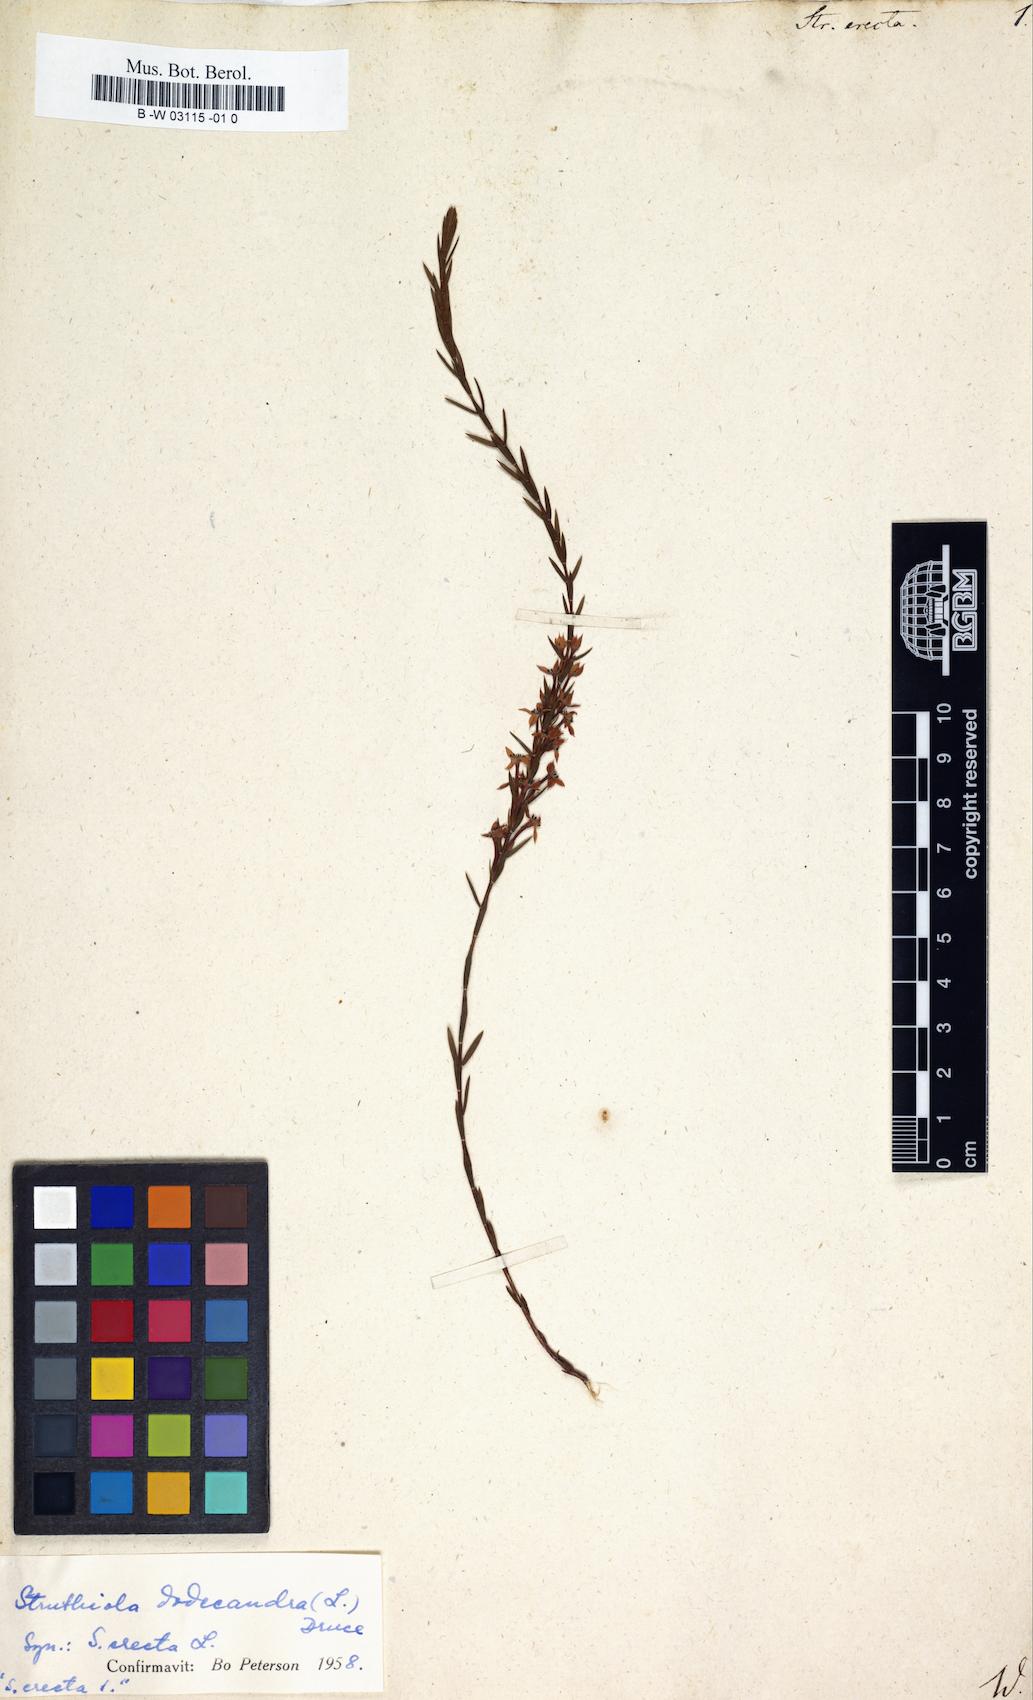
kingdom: Plantae
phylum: Tracheophyta
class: Magnoliopsida
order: Malvales
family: Thymelaeaceae
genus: Struthiola
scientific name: Struthiola
